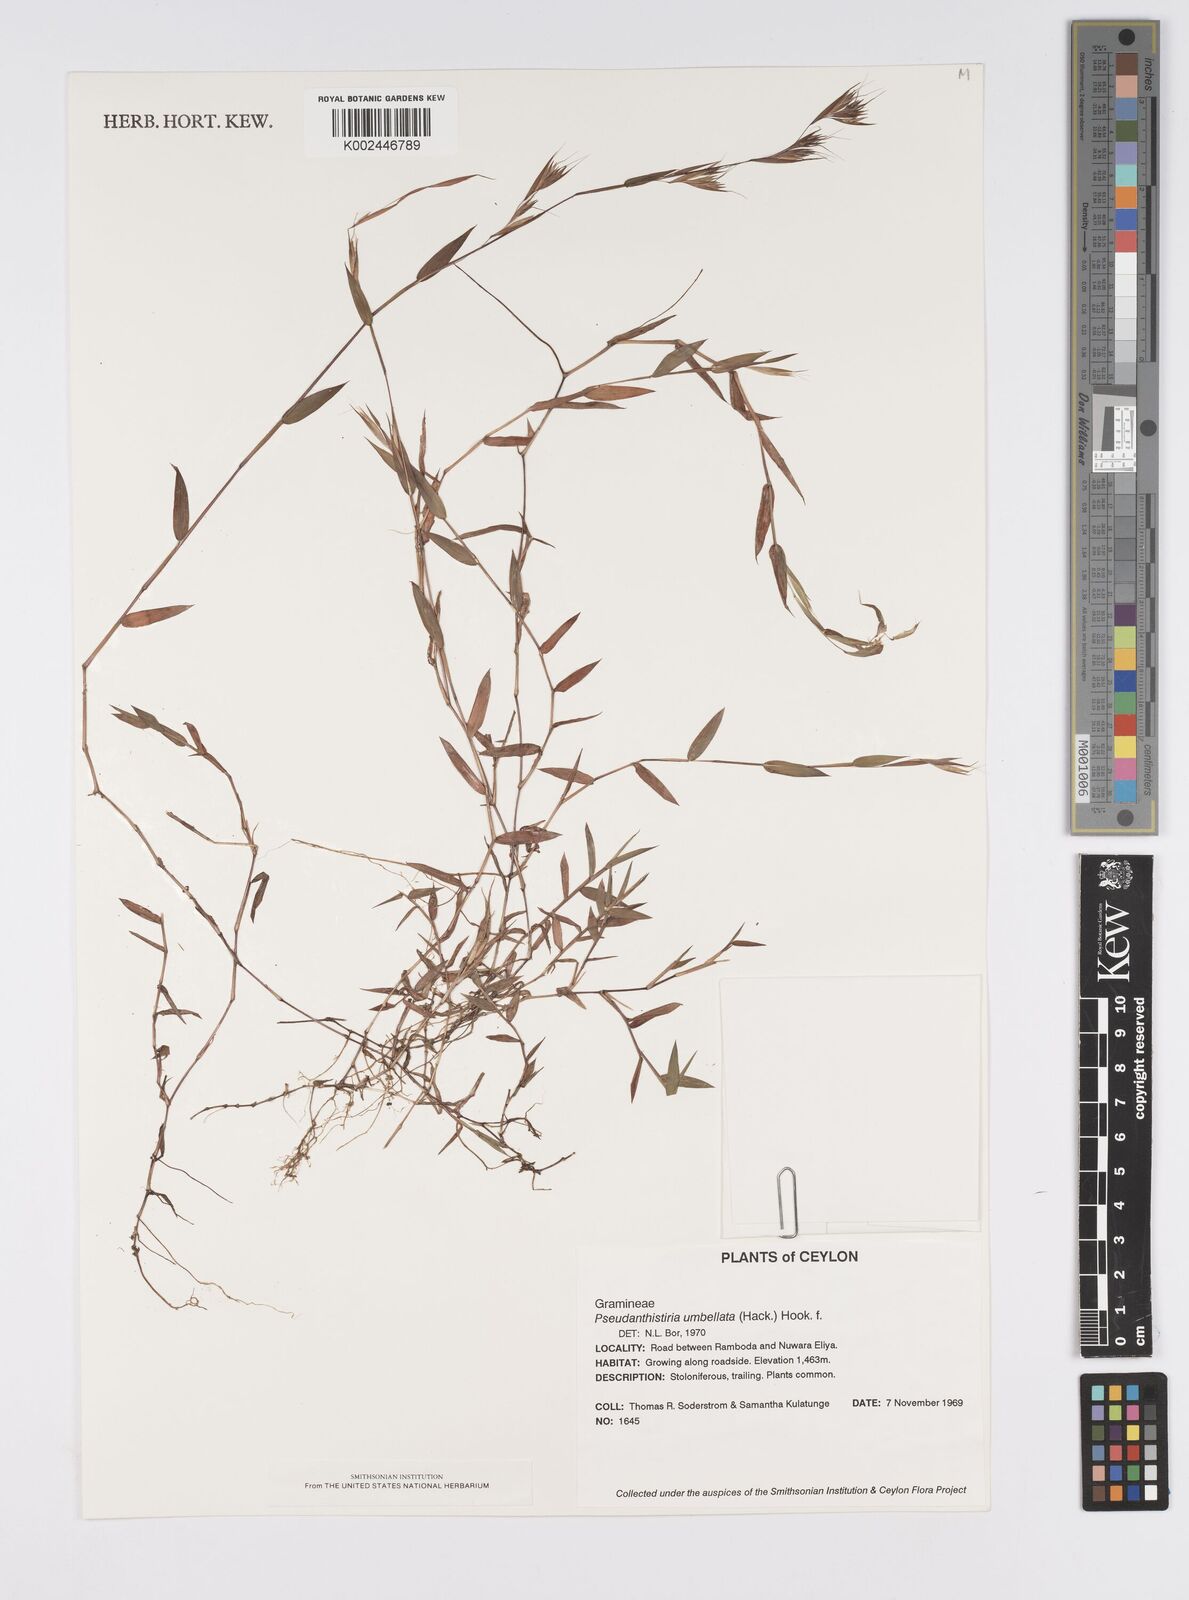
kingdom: Plantae
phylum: Tracheophyta
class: Liliopsida
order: Poales
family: Poaceae
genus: Pseudanthistiria
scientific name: Pseudanthistiria umbellata
